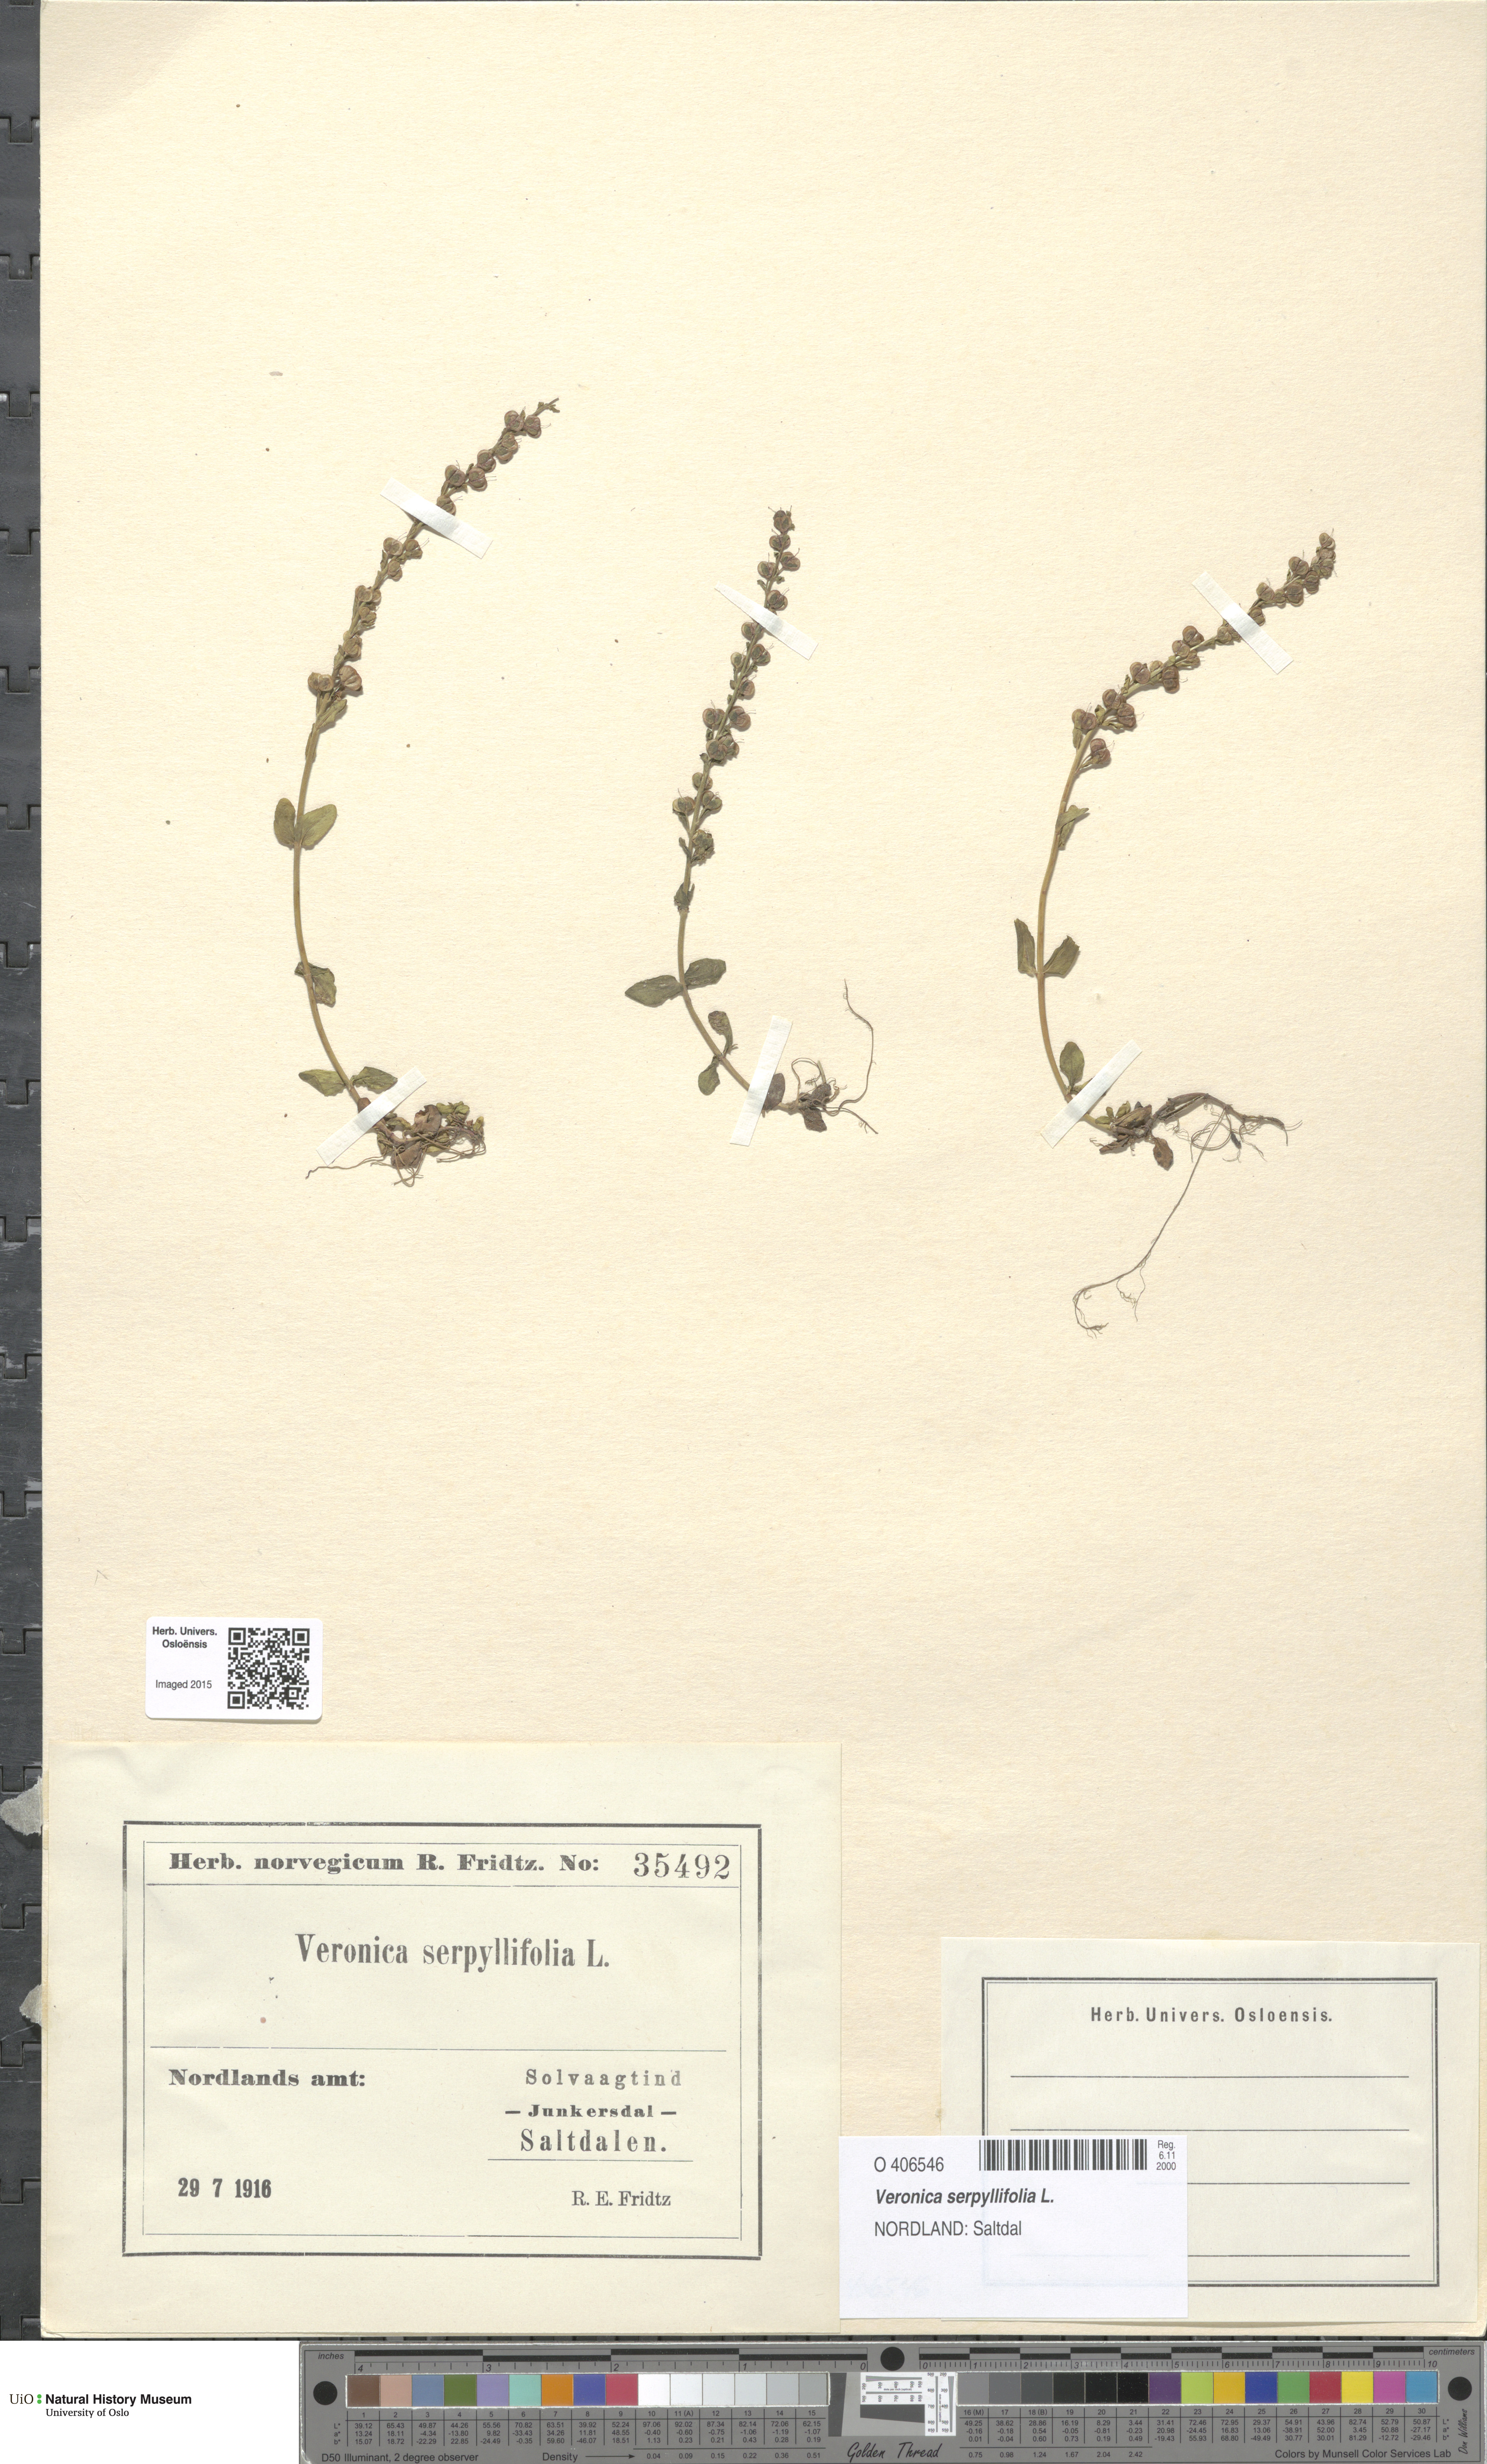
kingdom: Plantae
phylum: Tracheophyta
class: Magnoliopsida
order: Lamiales
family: Plantaginaceae
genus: Veronica
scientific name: Veronica serpyllifolia
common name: Thyme-leaved speedwell
